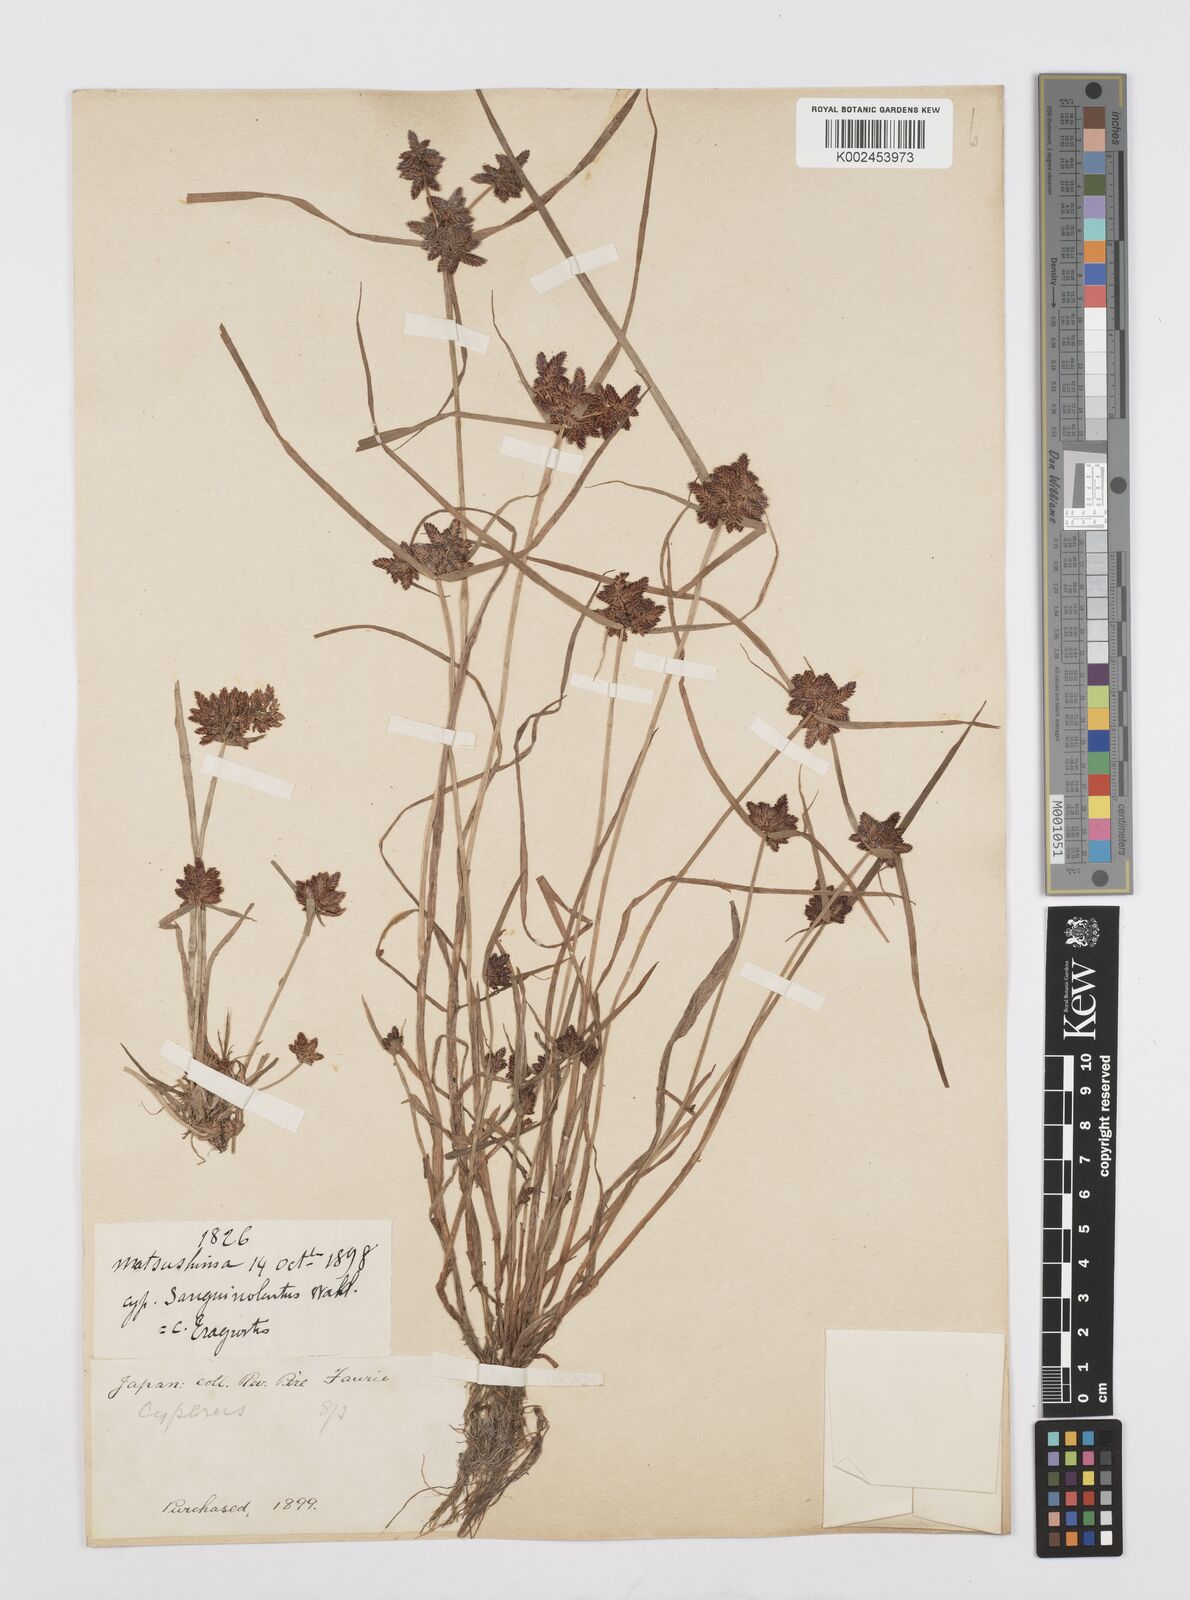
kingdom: Plantae
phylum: Tracheophyta
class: Liliopsida
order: Poales
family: Cyperaceae
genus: Cyperus
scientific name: Cyperus sanguinolentus
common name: Purpleglume flatsedge
